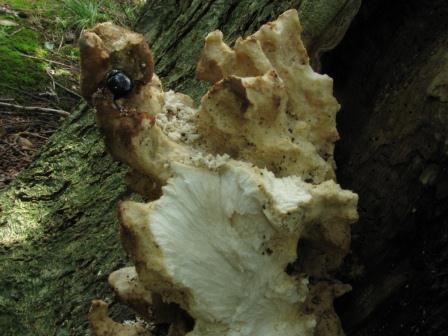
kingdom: Fungi
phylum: Basidiomycota
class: Agaricomycetes
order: Polyporales
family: Laetiporaceae
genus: Laetiporus
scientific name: Laetiporus sulphureus
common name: svovlporesvamp
